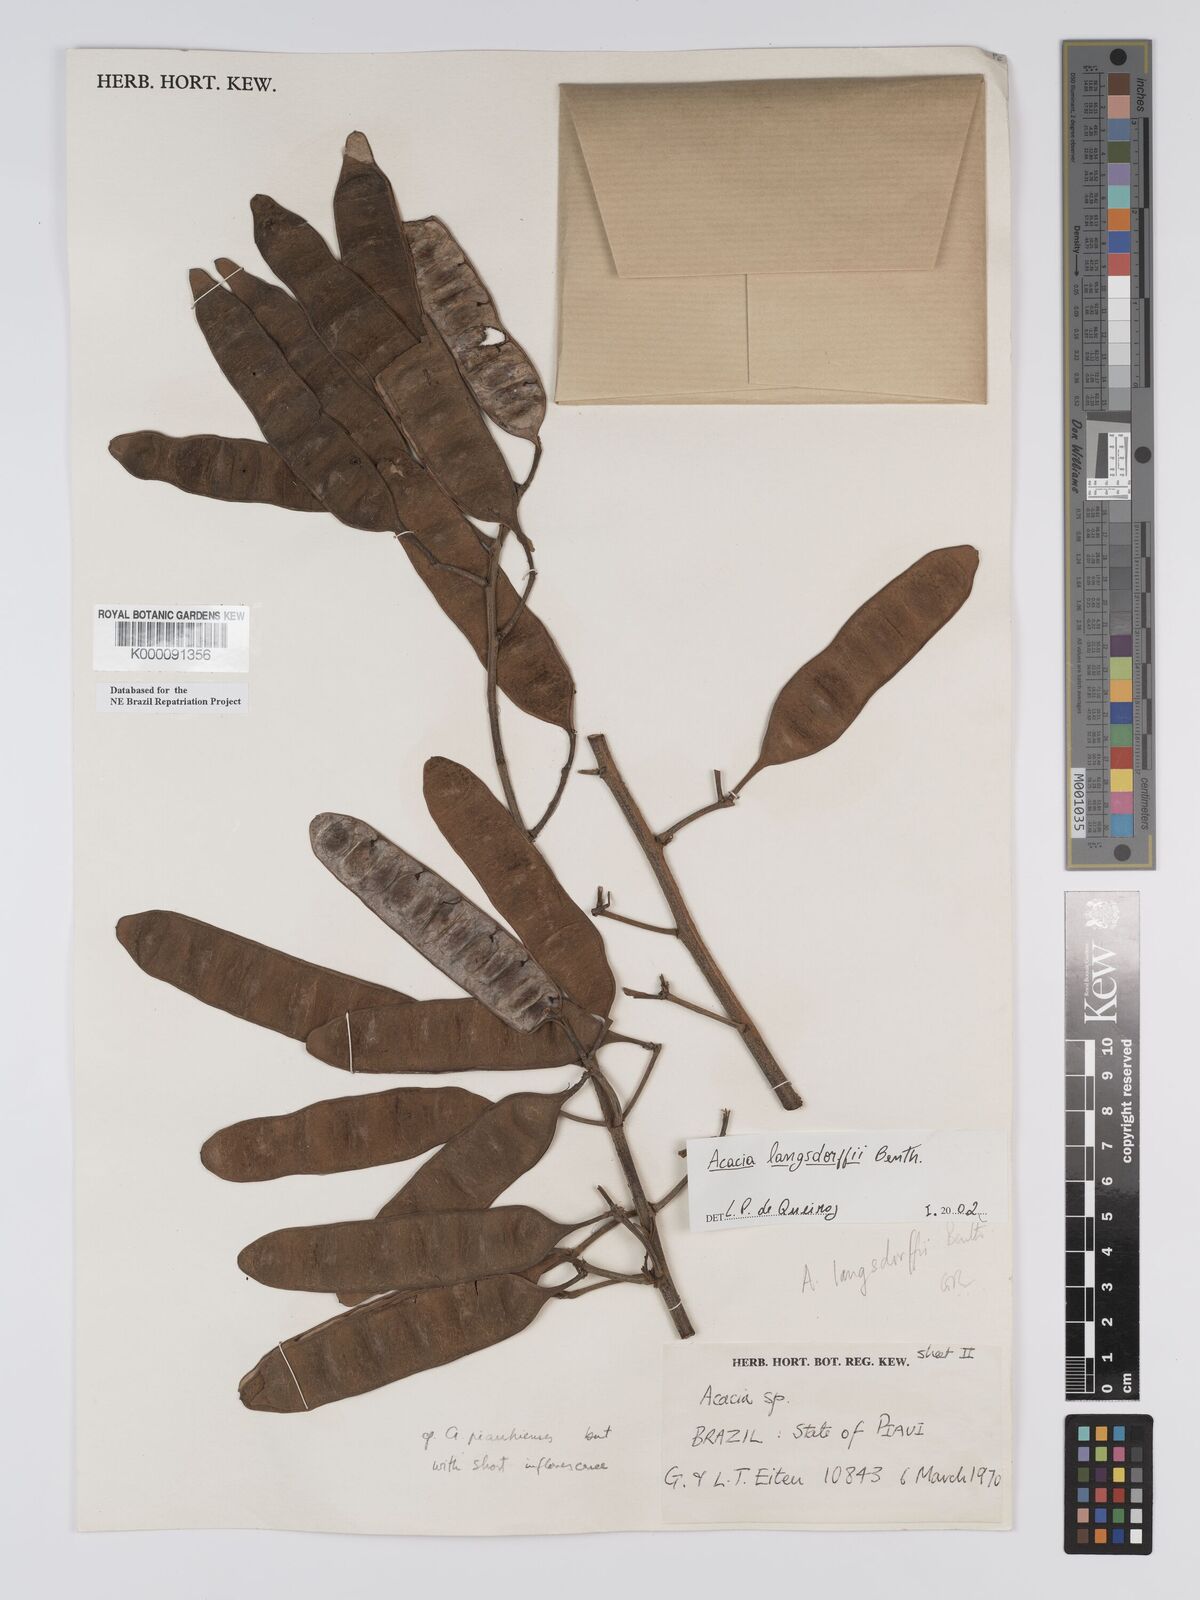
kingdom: Plantae
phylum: Tracheophyta
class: Magnoliopsida
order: Fabales
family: Fabaceae
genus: Senegalia
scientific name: Senegalia langsdorffii
